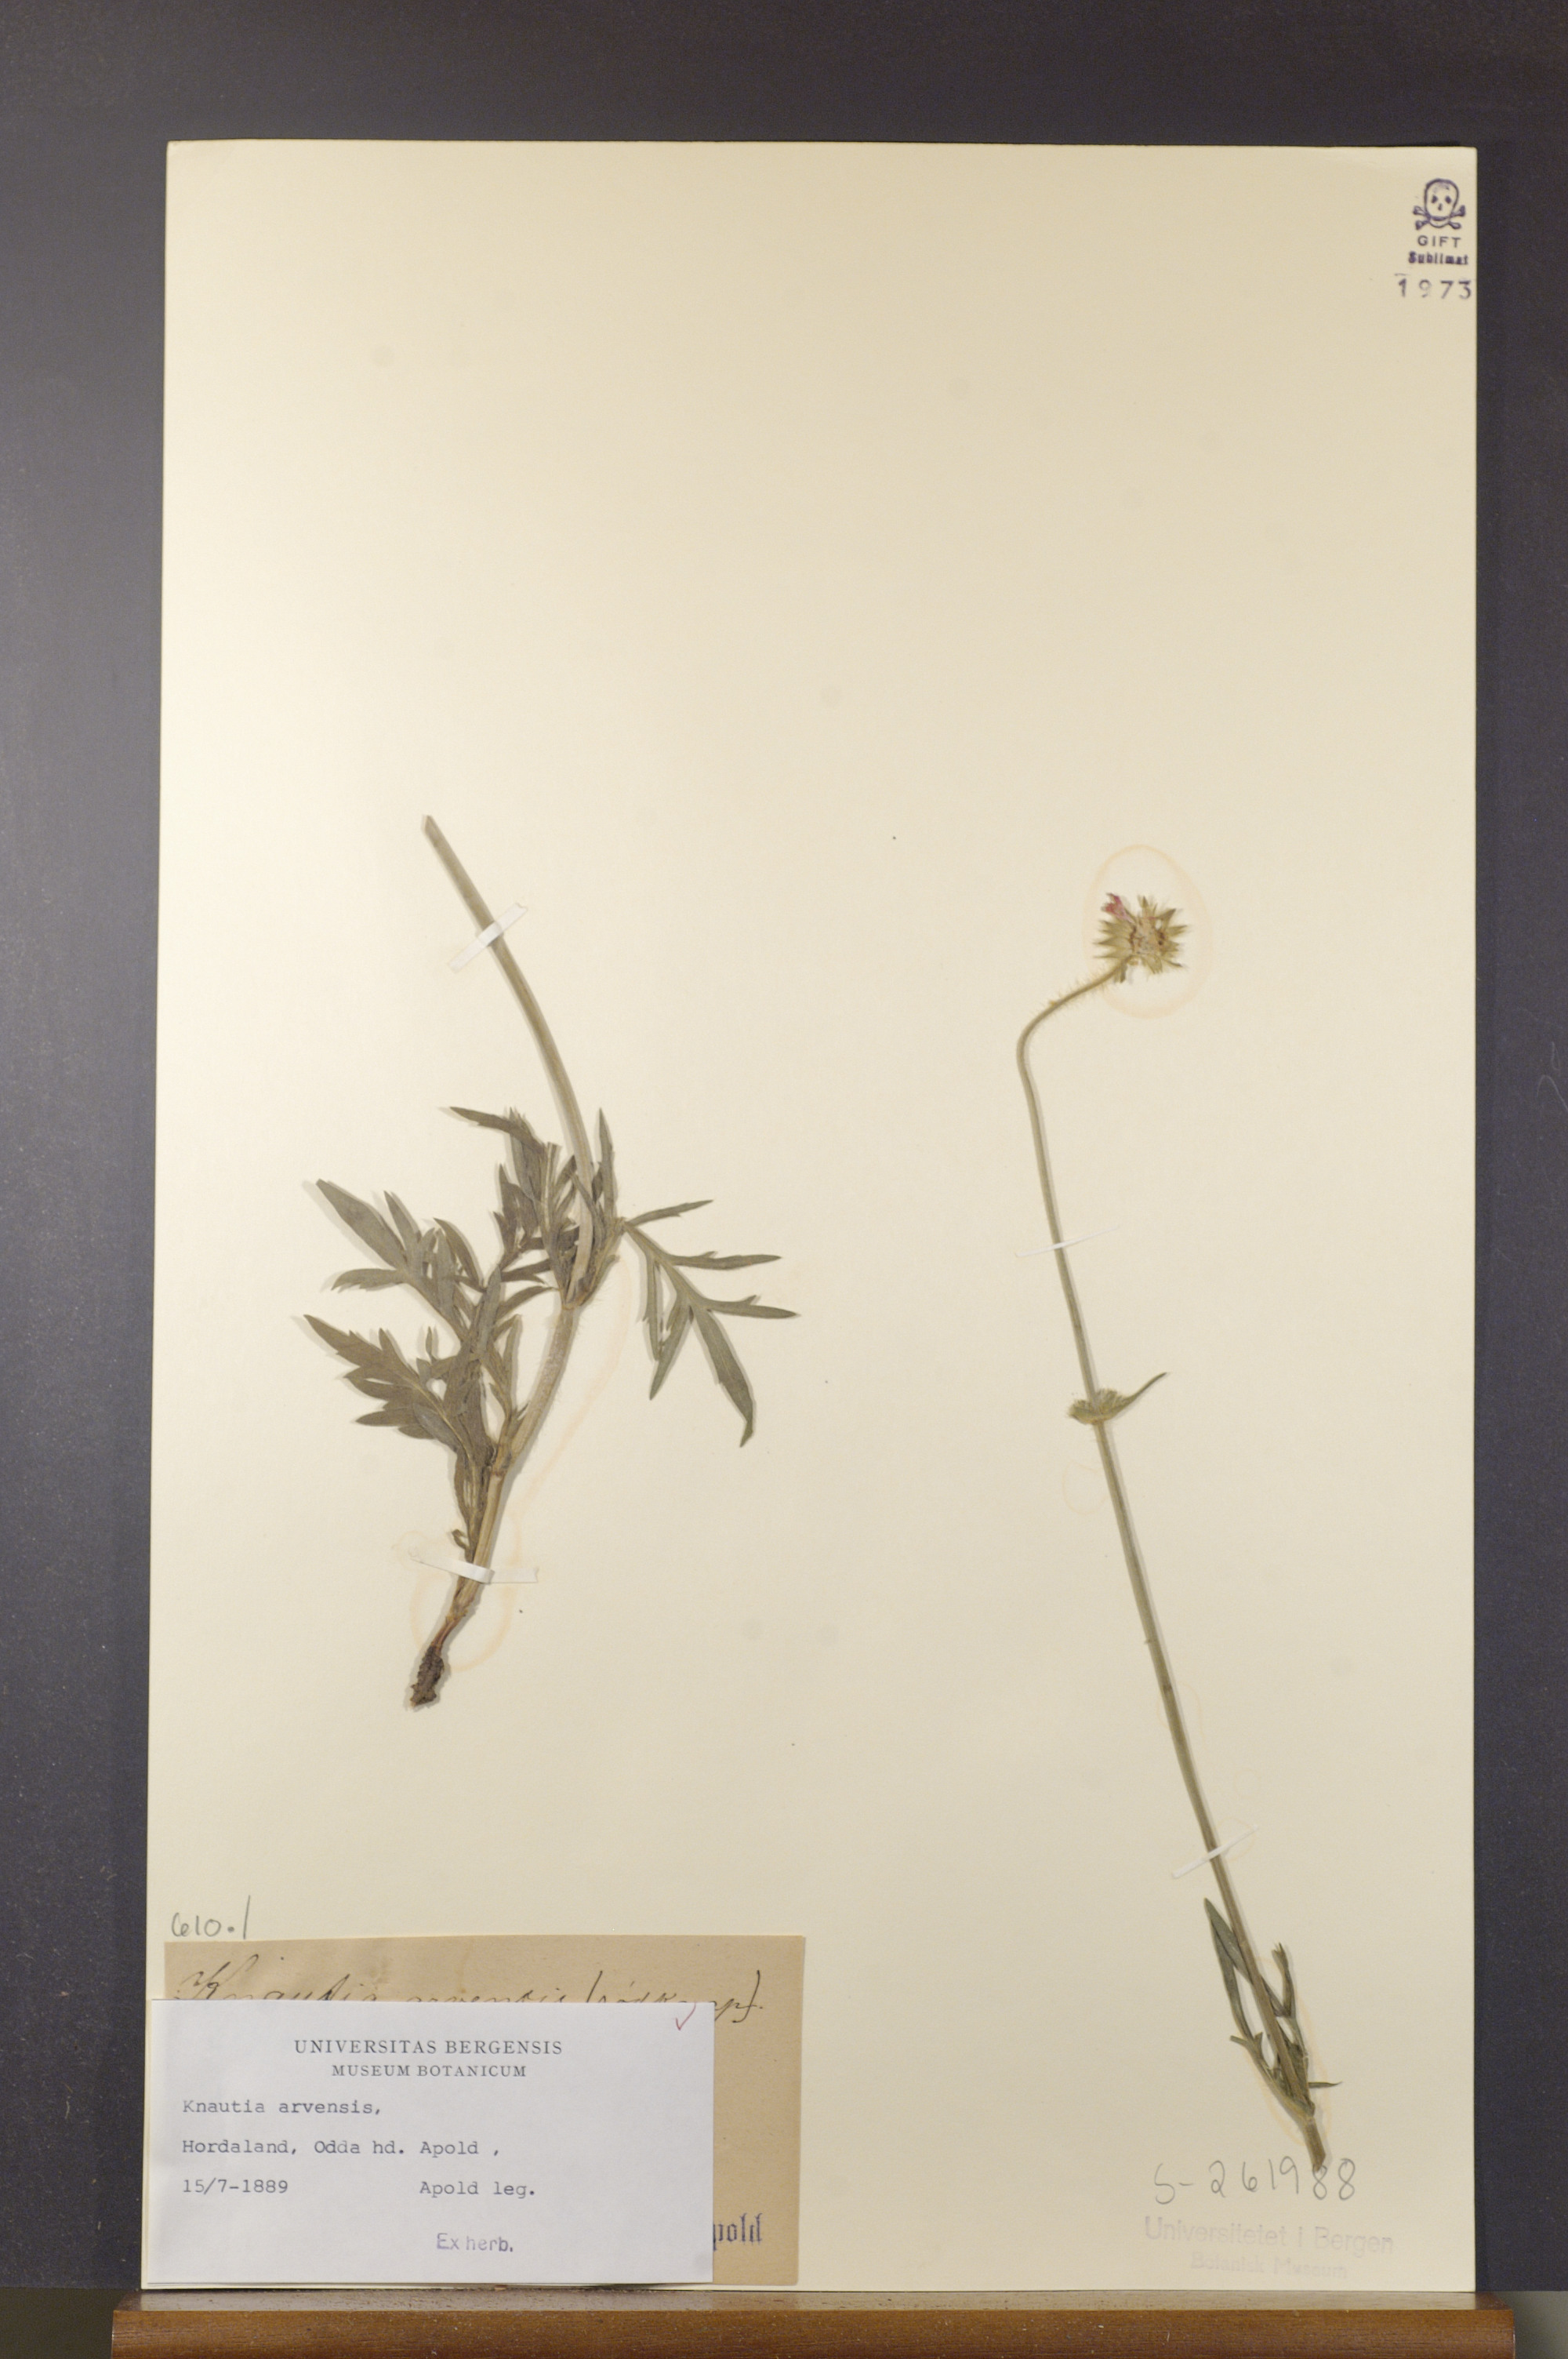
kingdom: Plantae
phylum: Tracheophyta
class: Magnoliopsida
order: Dipsacales
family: Caprifoliaceae
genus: Knautia
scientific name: Knautia arvensis
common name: Field scabiosa
